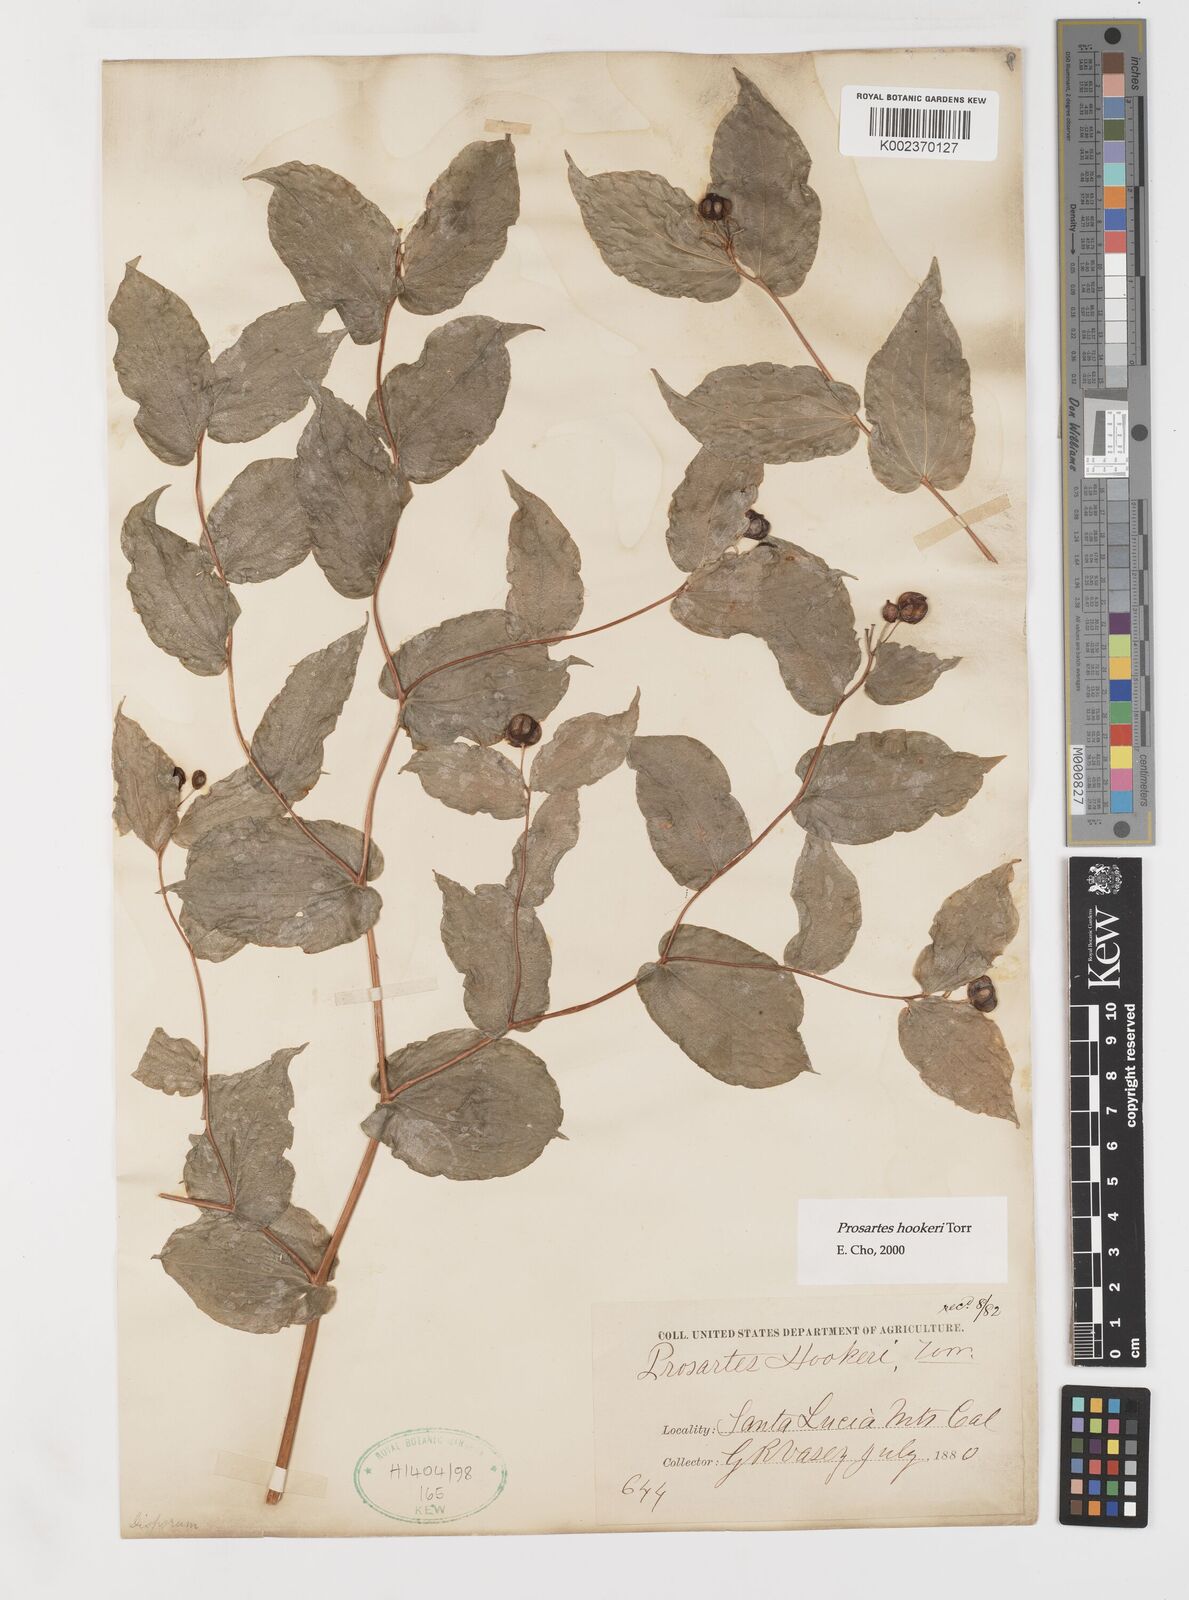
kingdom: Plantae
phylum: Tracheophyta
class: Liliopsida
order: Liliales
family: Liliaceae
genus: Prosartes
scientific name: Prosartes hookeri
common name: Fairy-bells
